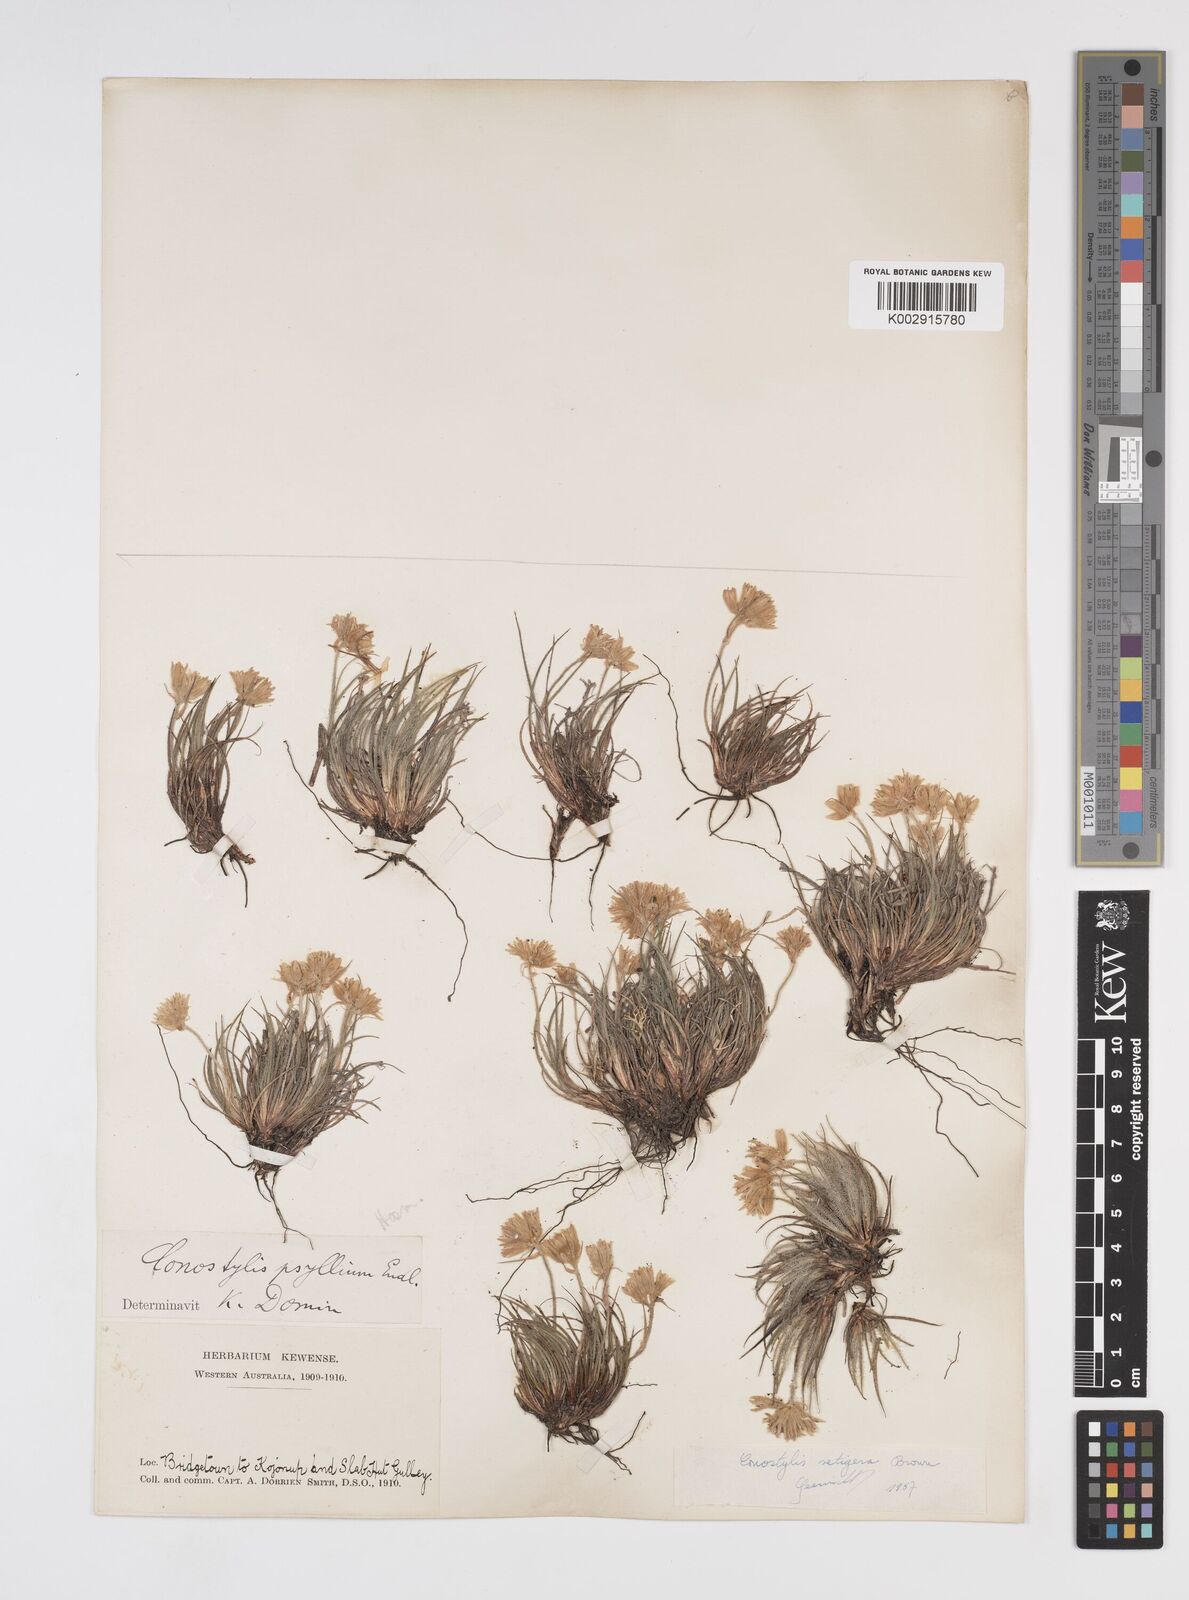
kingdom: Plantae
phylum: Tracheophyta
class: Liliopsida
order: Commelinales
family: Haemodoraceae
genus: Conostylis
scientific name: Conostylis setigera
